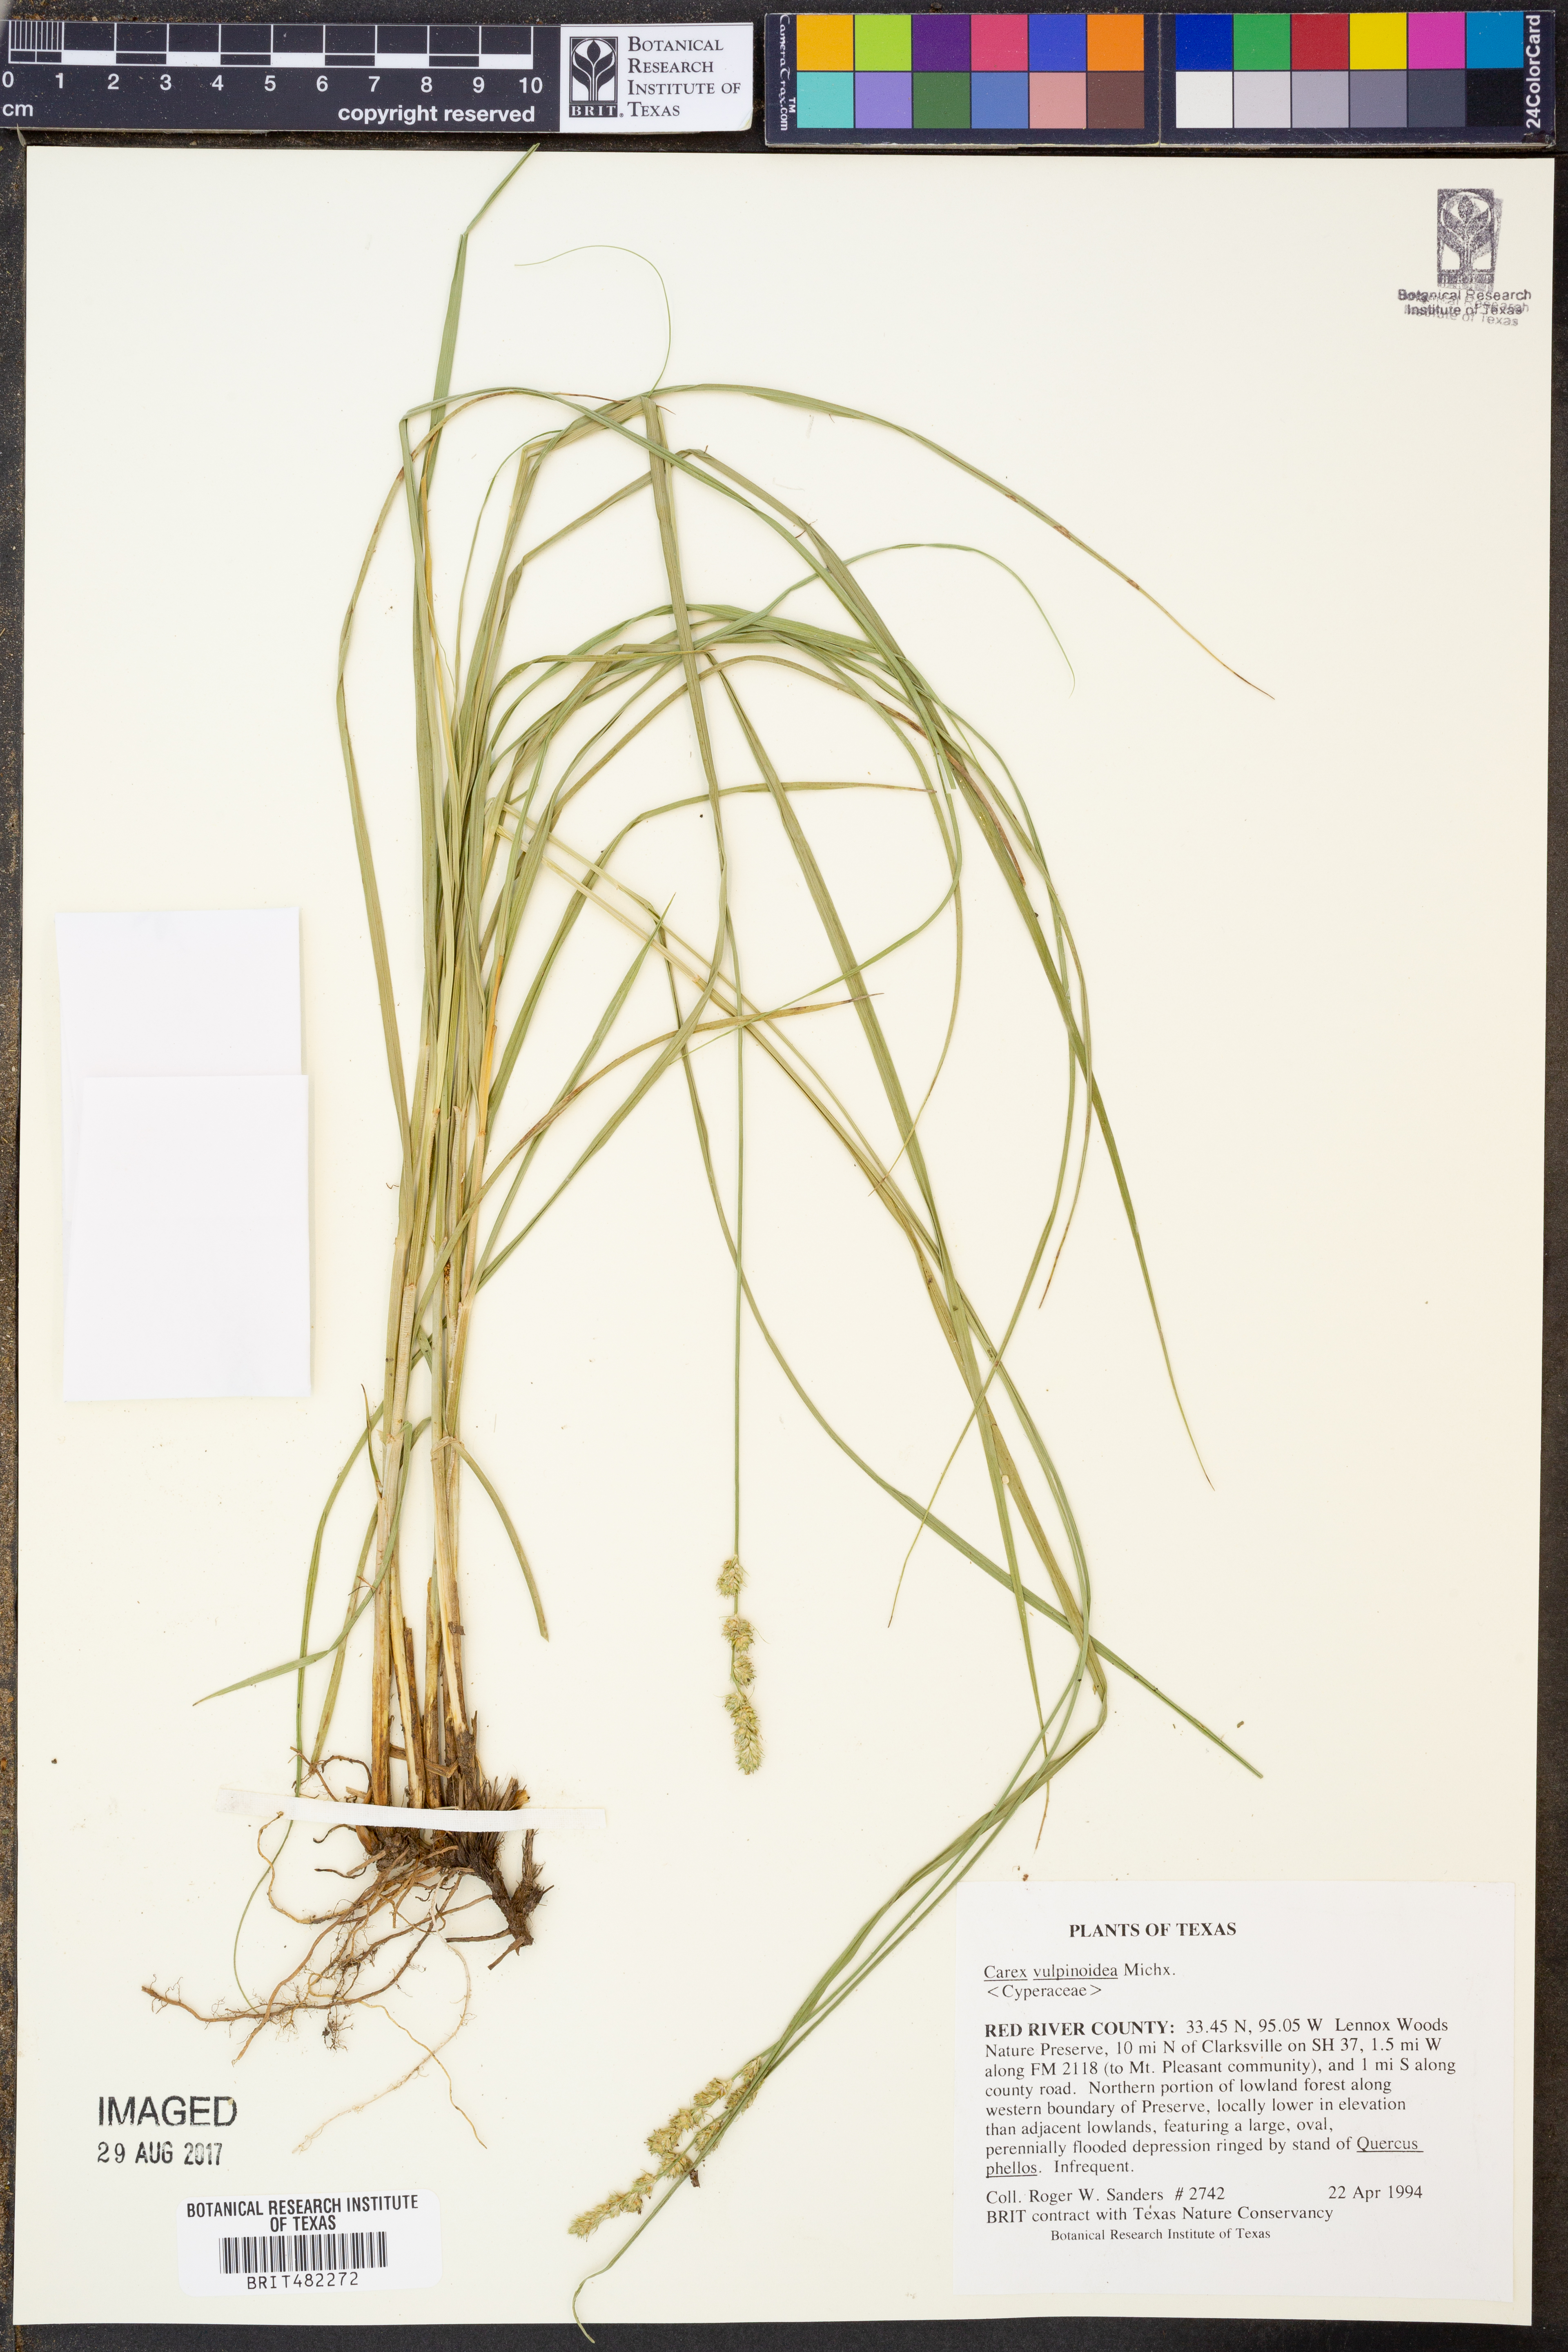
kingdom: Plantae
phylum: Tracheophyta
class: Liliopsida
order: Poales
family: Cyperaceae
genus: Carex
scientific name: Carex vulpinoidea
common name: American fox-sedge
